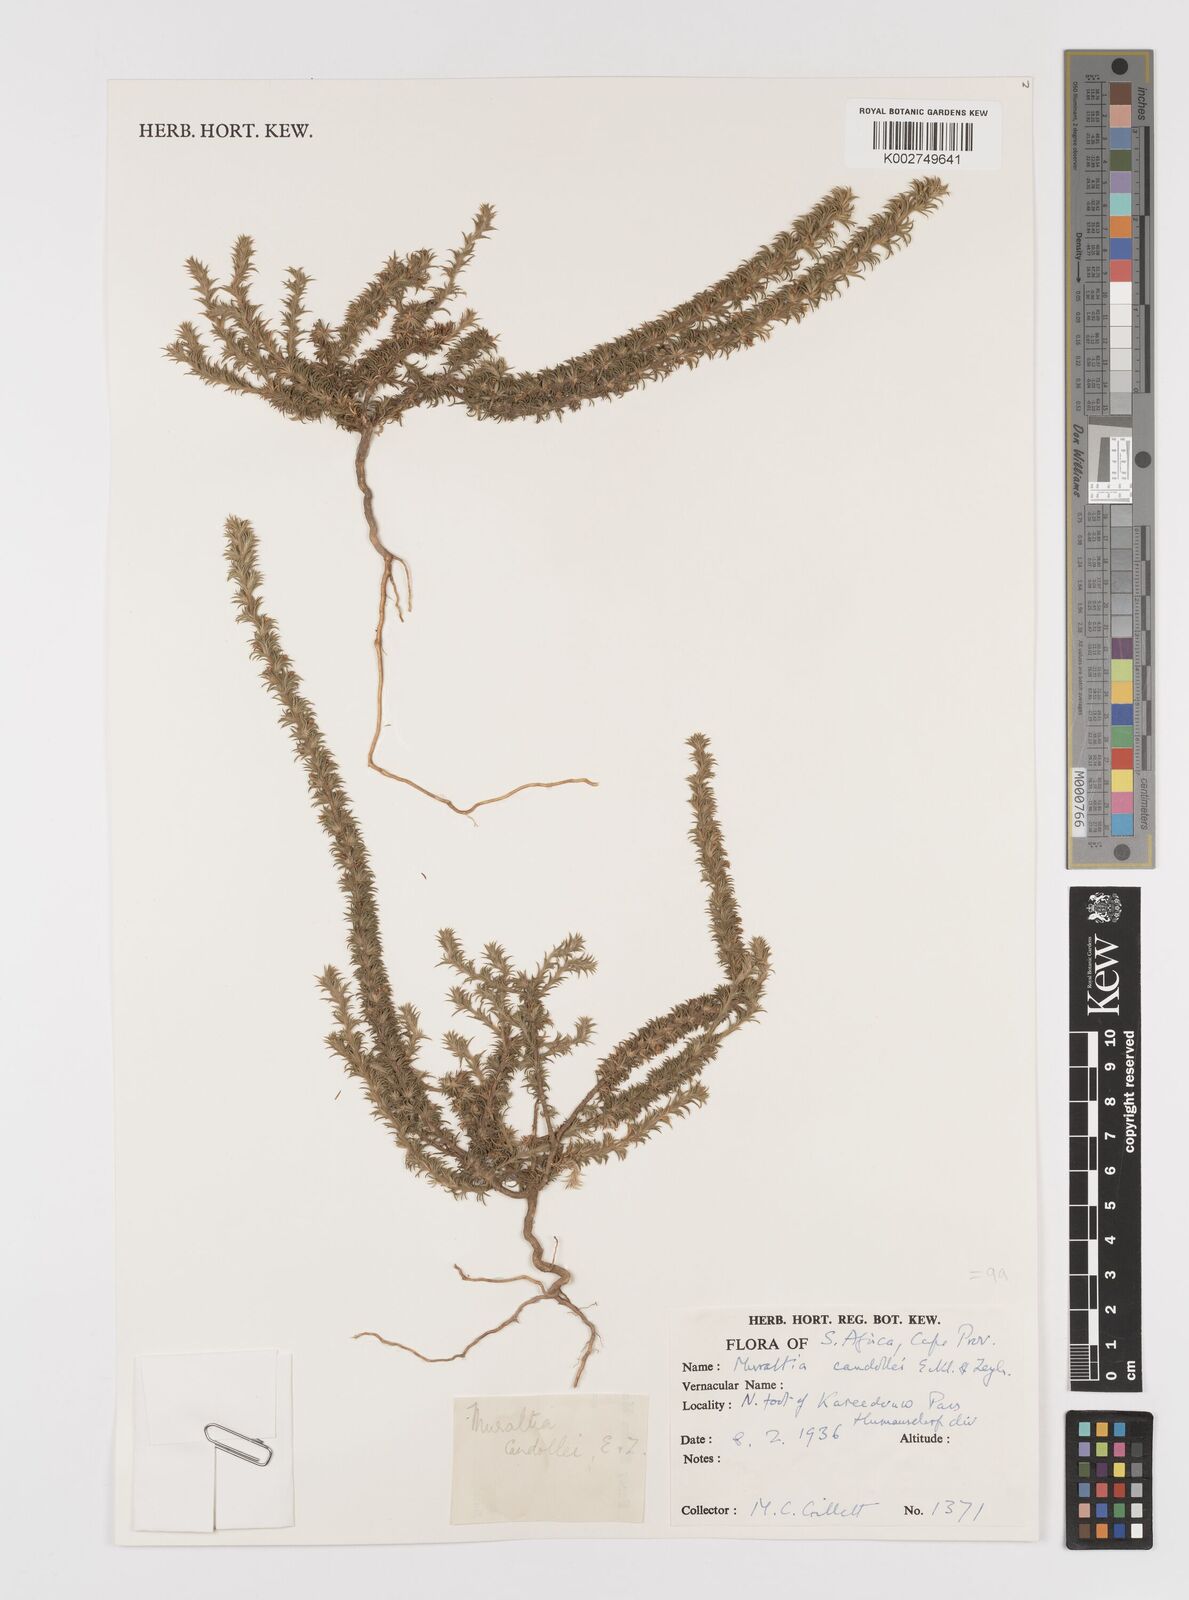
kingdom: Plantae
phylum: Tracheophyta
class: Magnoliopsida
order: Fabales
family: Polygalaceae
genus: Muraltia
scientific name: Muraltia alopecuroides
